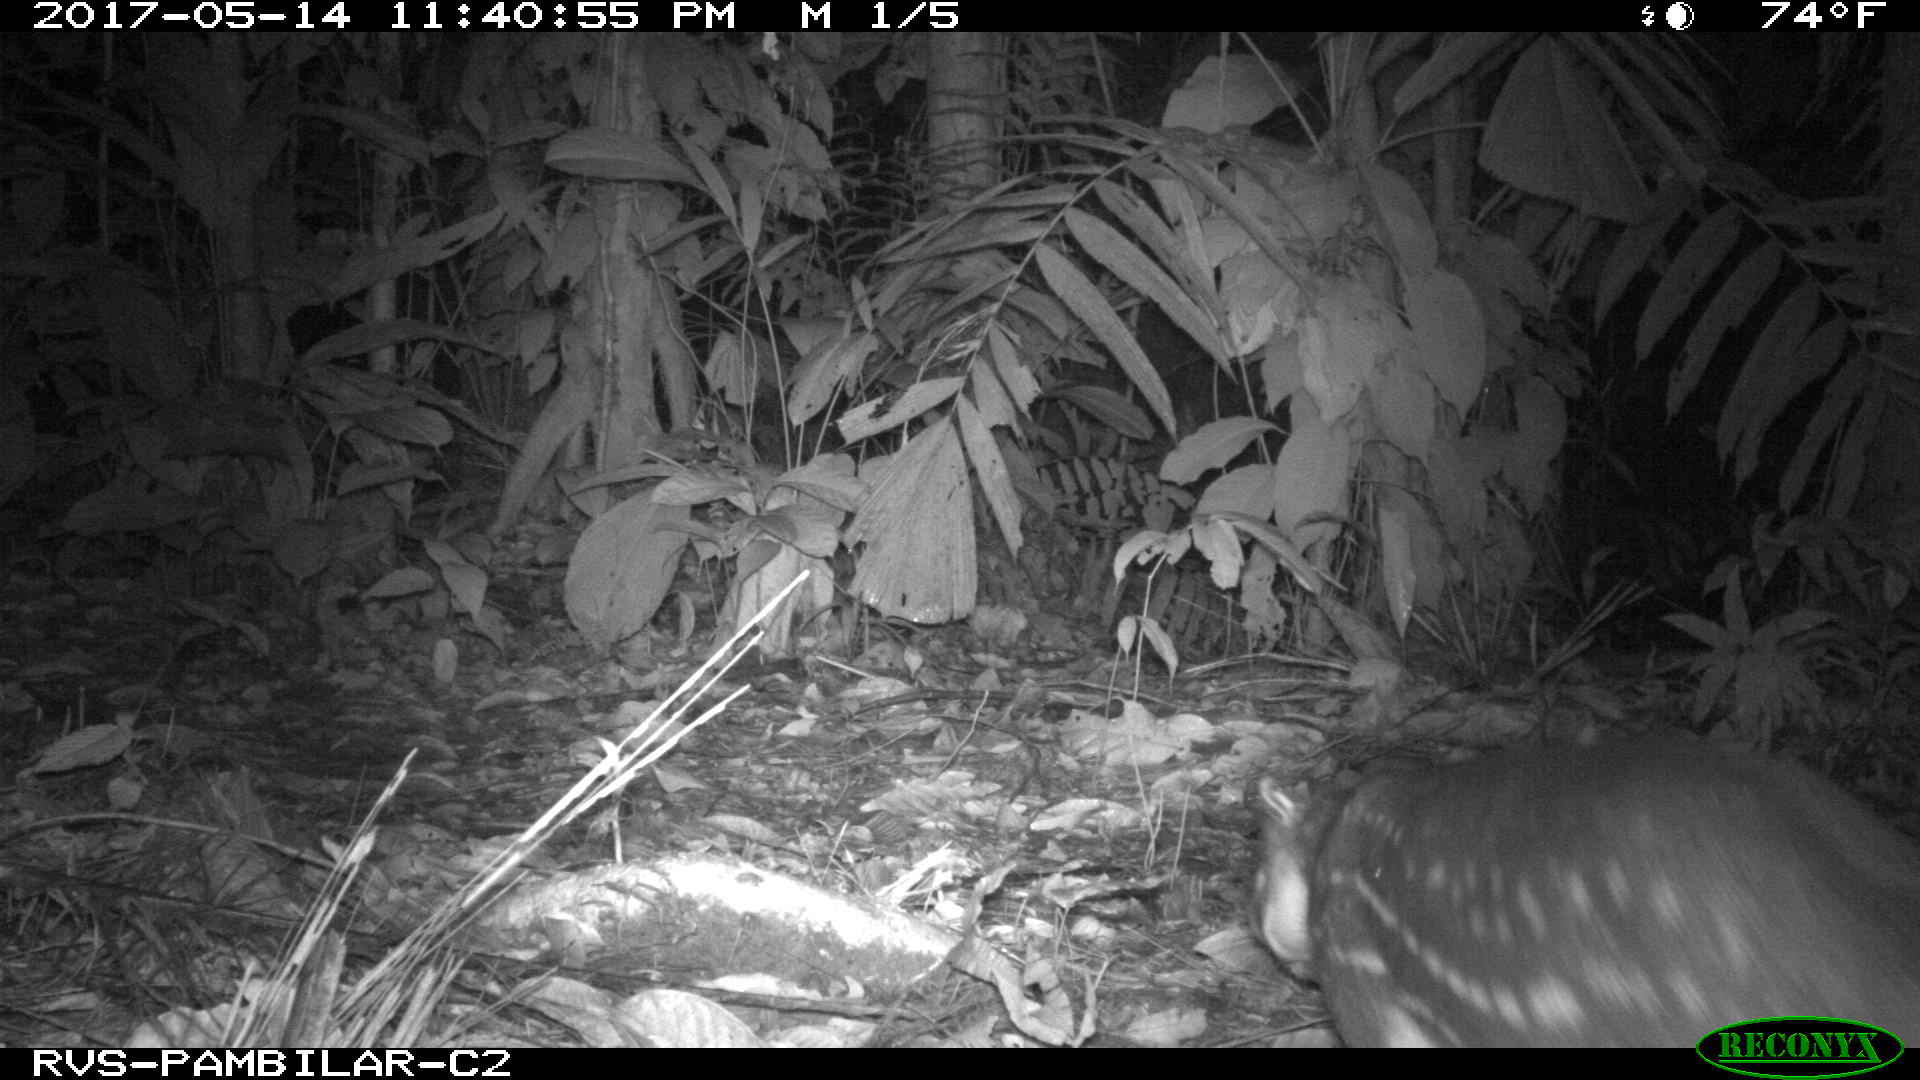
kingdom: Animalia
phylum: Chordata
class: Mammalia
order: Rodentia
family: Cuniculidae
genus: Cuniculus
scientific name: Cuniculus paca
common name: Lowland paca
